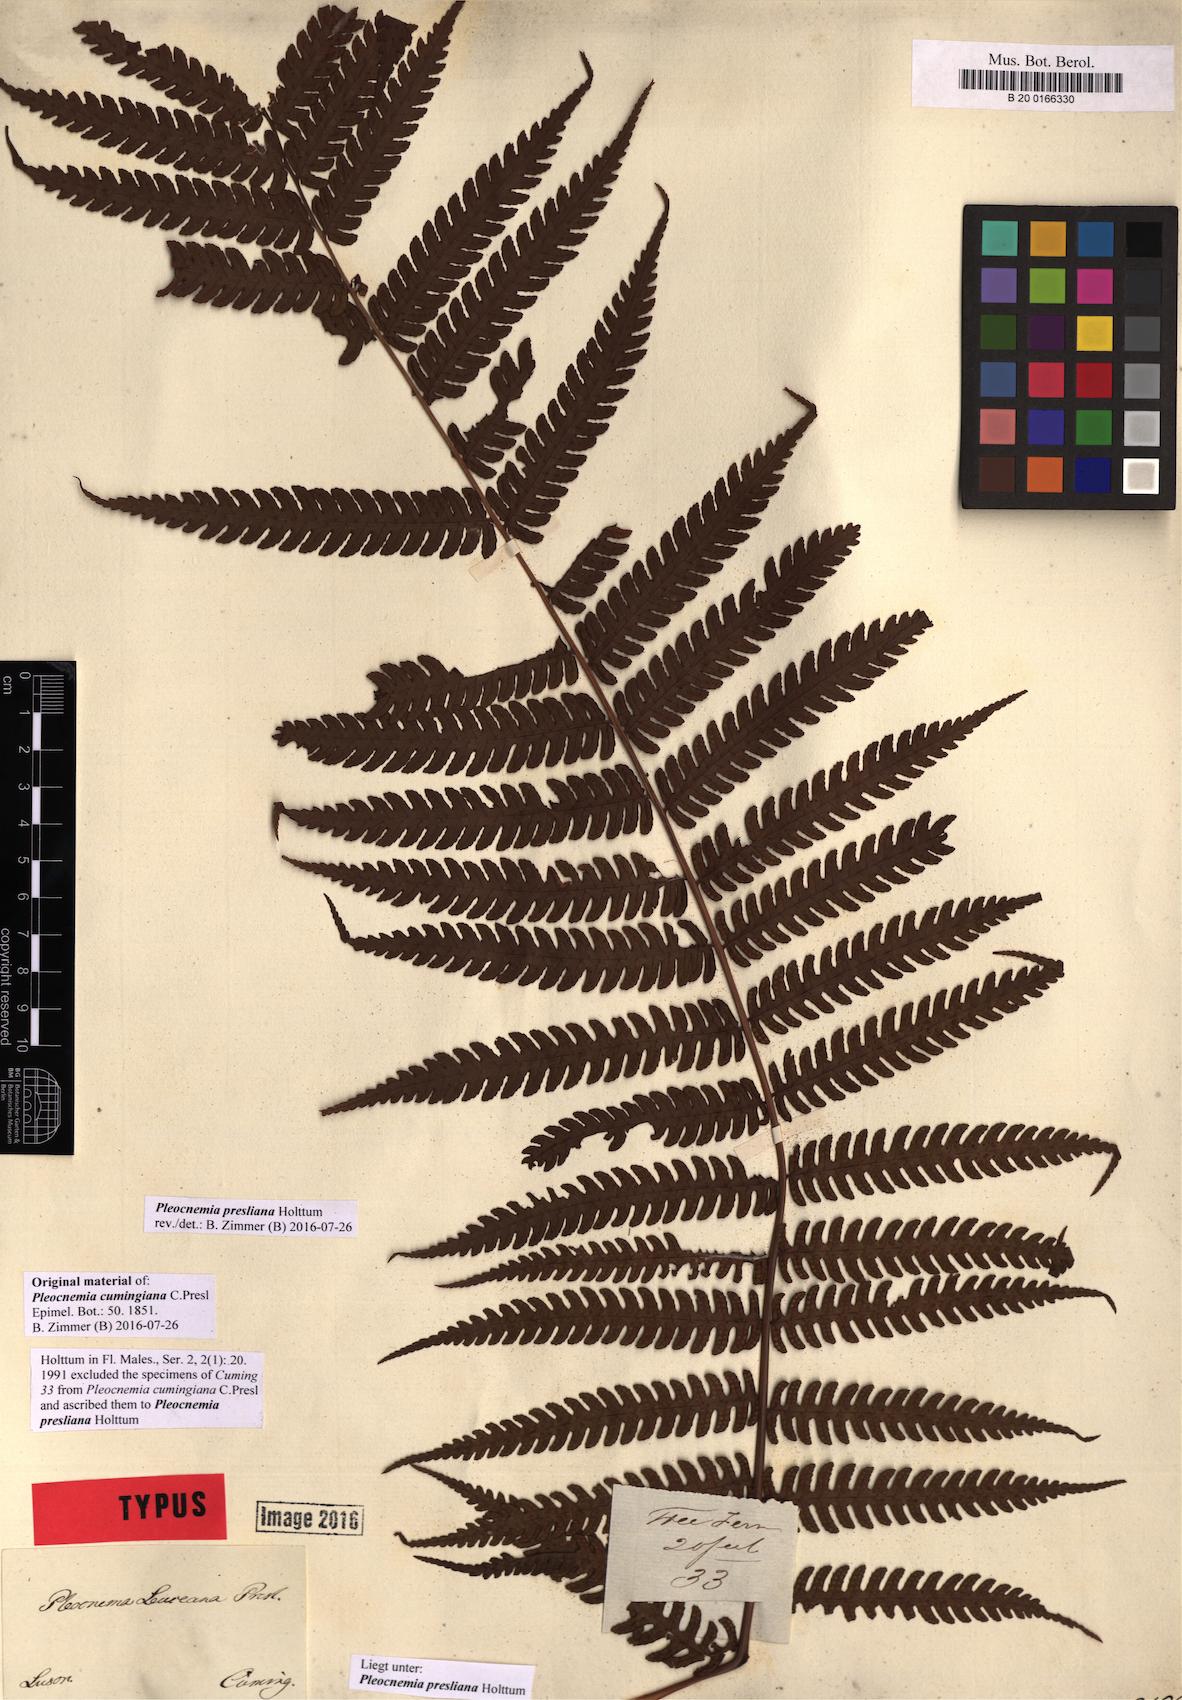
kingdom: Plantae
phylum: Tracheophyta
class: Polypodiopsida
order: Polypodiales
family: Dryopteridaceae
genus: Pleocnemia
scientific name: Pleocnemia presliana
